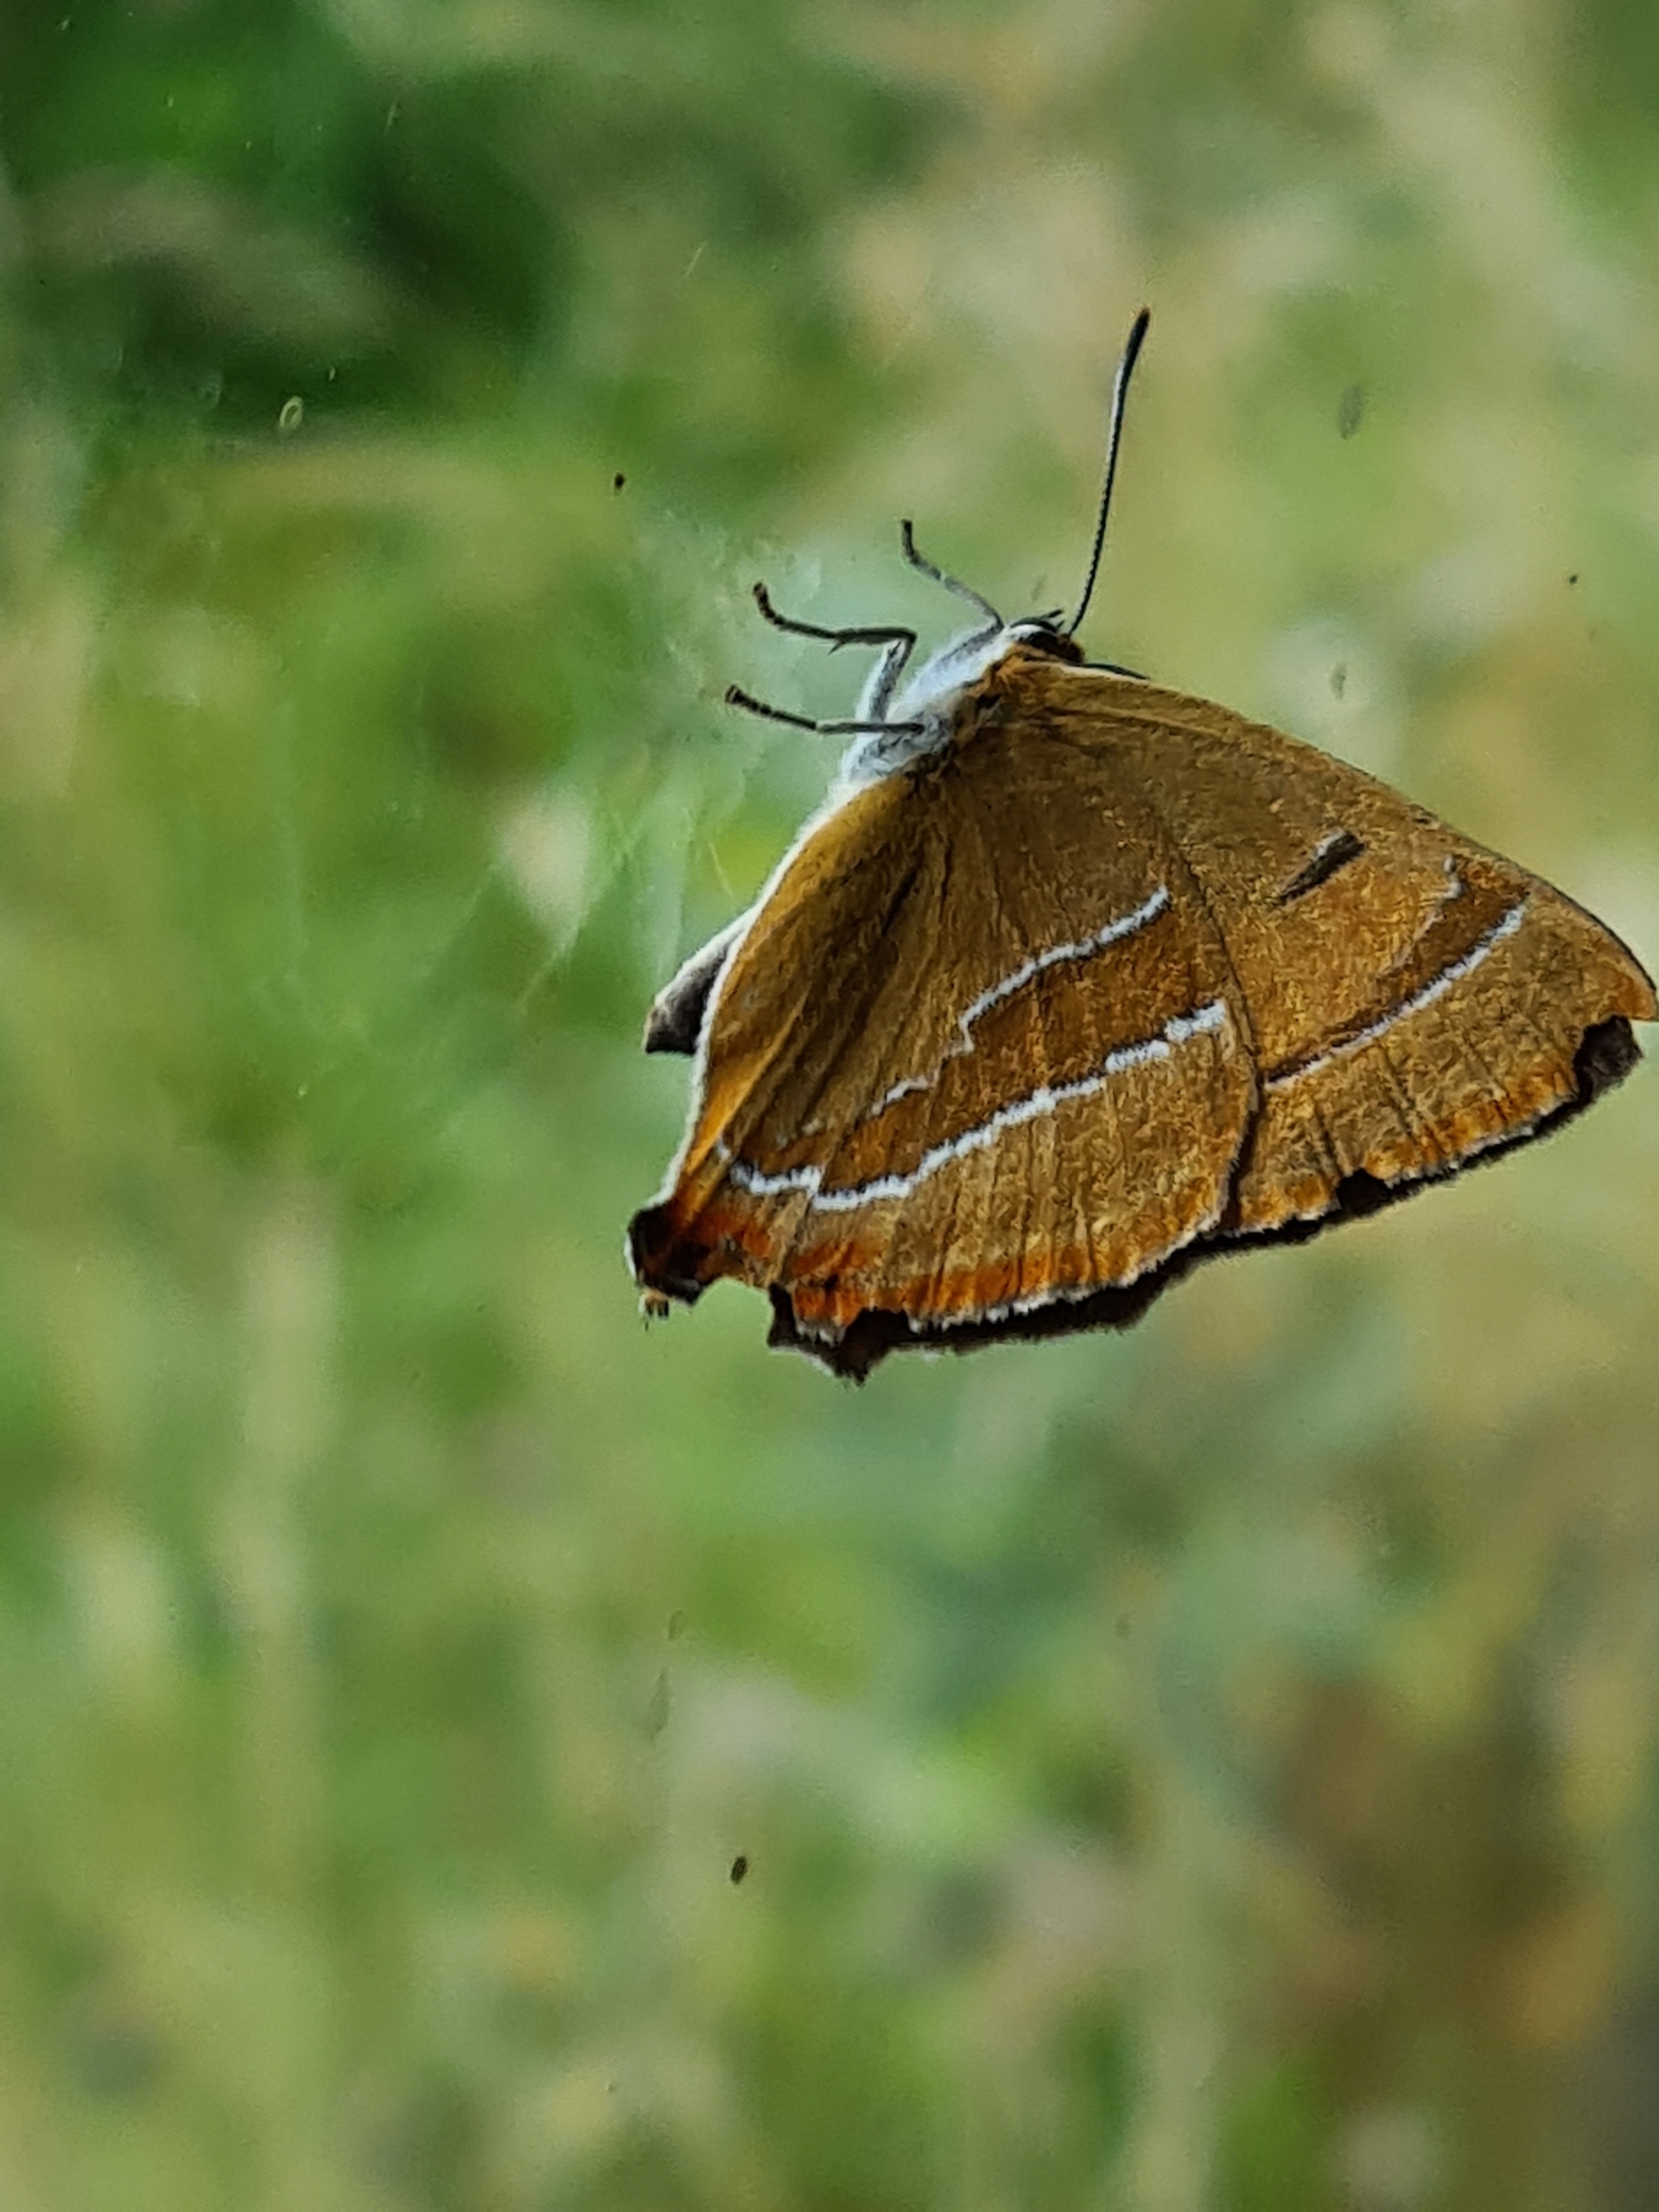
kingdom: Animalia
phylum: Arthropoda
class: Insecta
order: Lepidoptera
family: Lycaenidae
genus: Thecla
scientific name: Thecla betulae
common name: Guldhale
